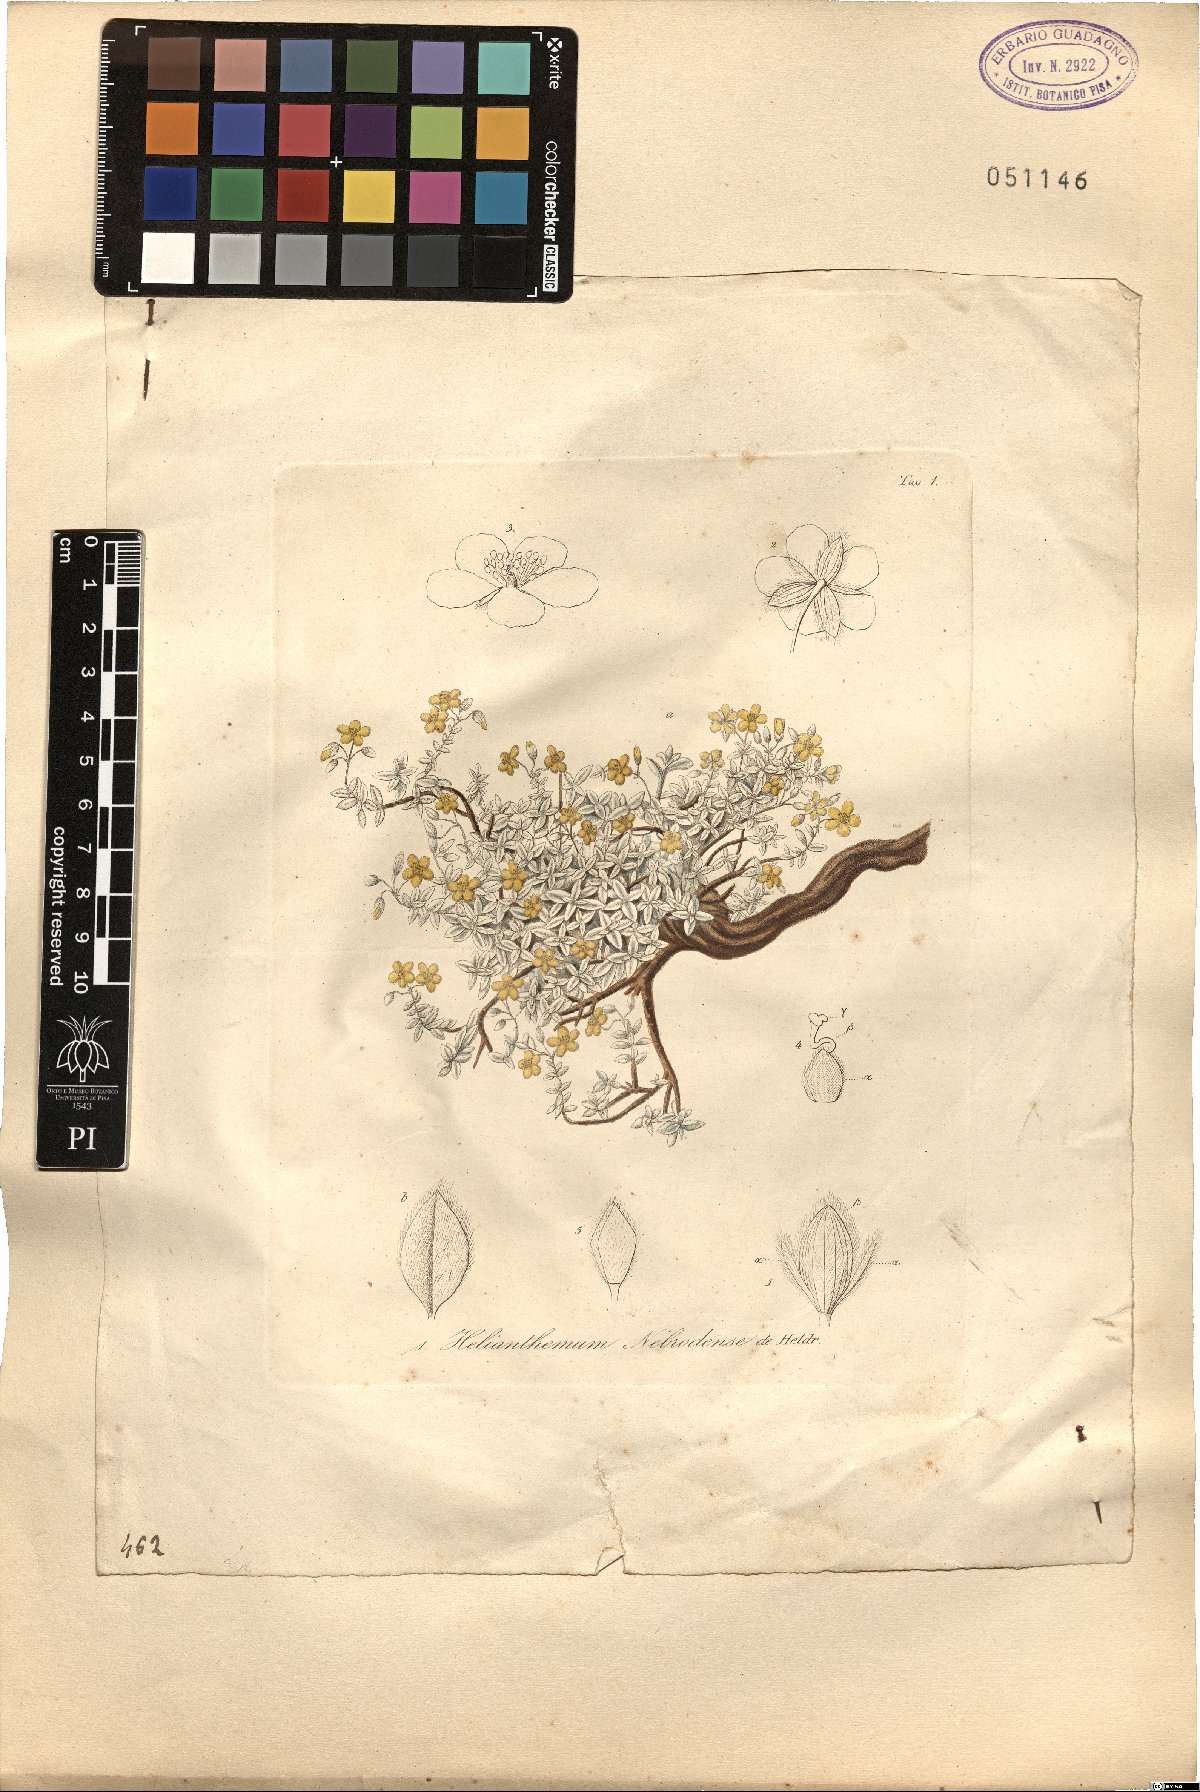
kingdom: Plantae
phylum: Tracheophyta
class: Magnoliopsida
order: Malvales
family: Cistaceae
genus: Helianthemum
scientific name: Helianthemum nebrodense
